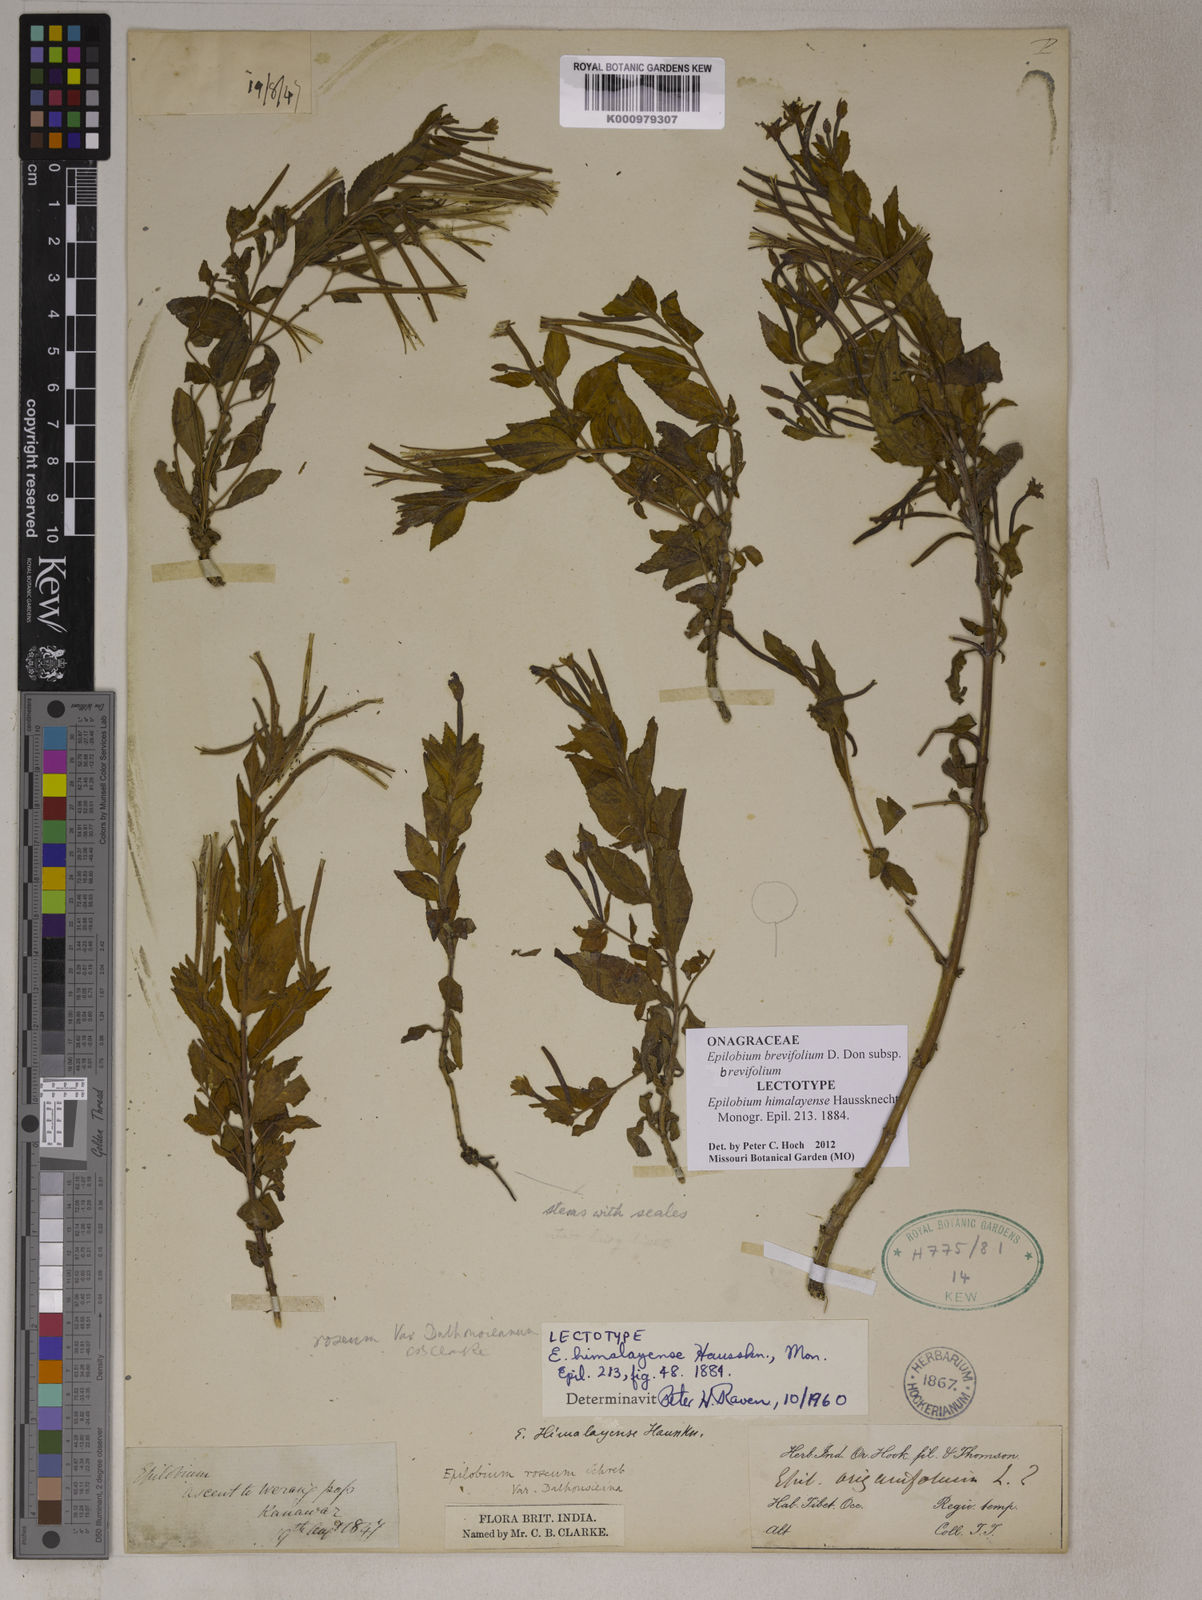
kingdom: Plantae
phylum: Tracheophyta
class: Magnoliopsida
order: Myrtales
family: Onagraceae
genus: Epilobium
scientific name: Epilobium royleanum
